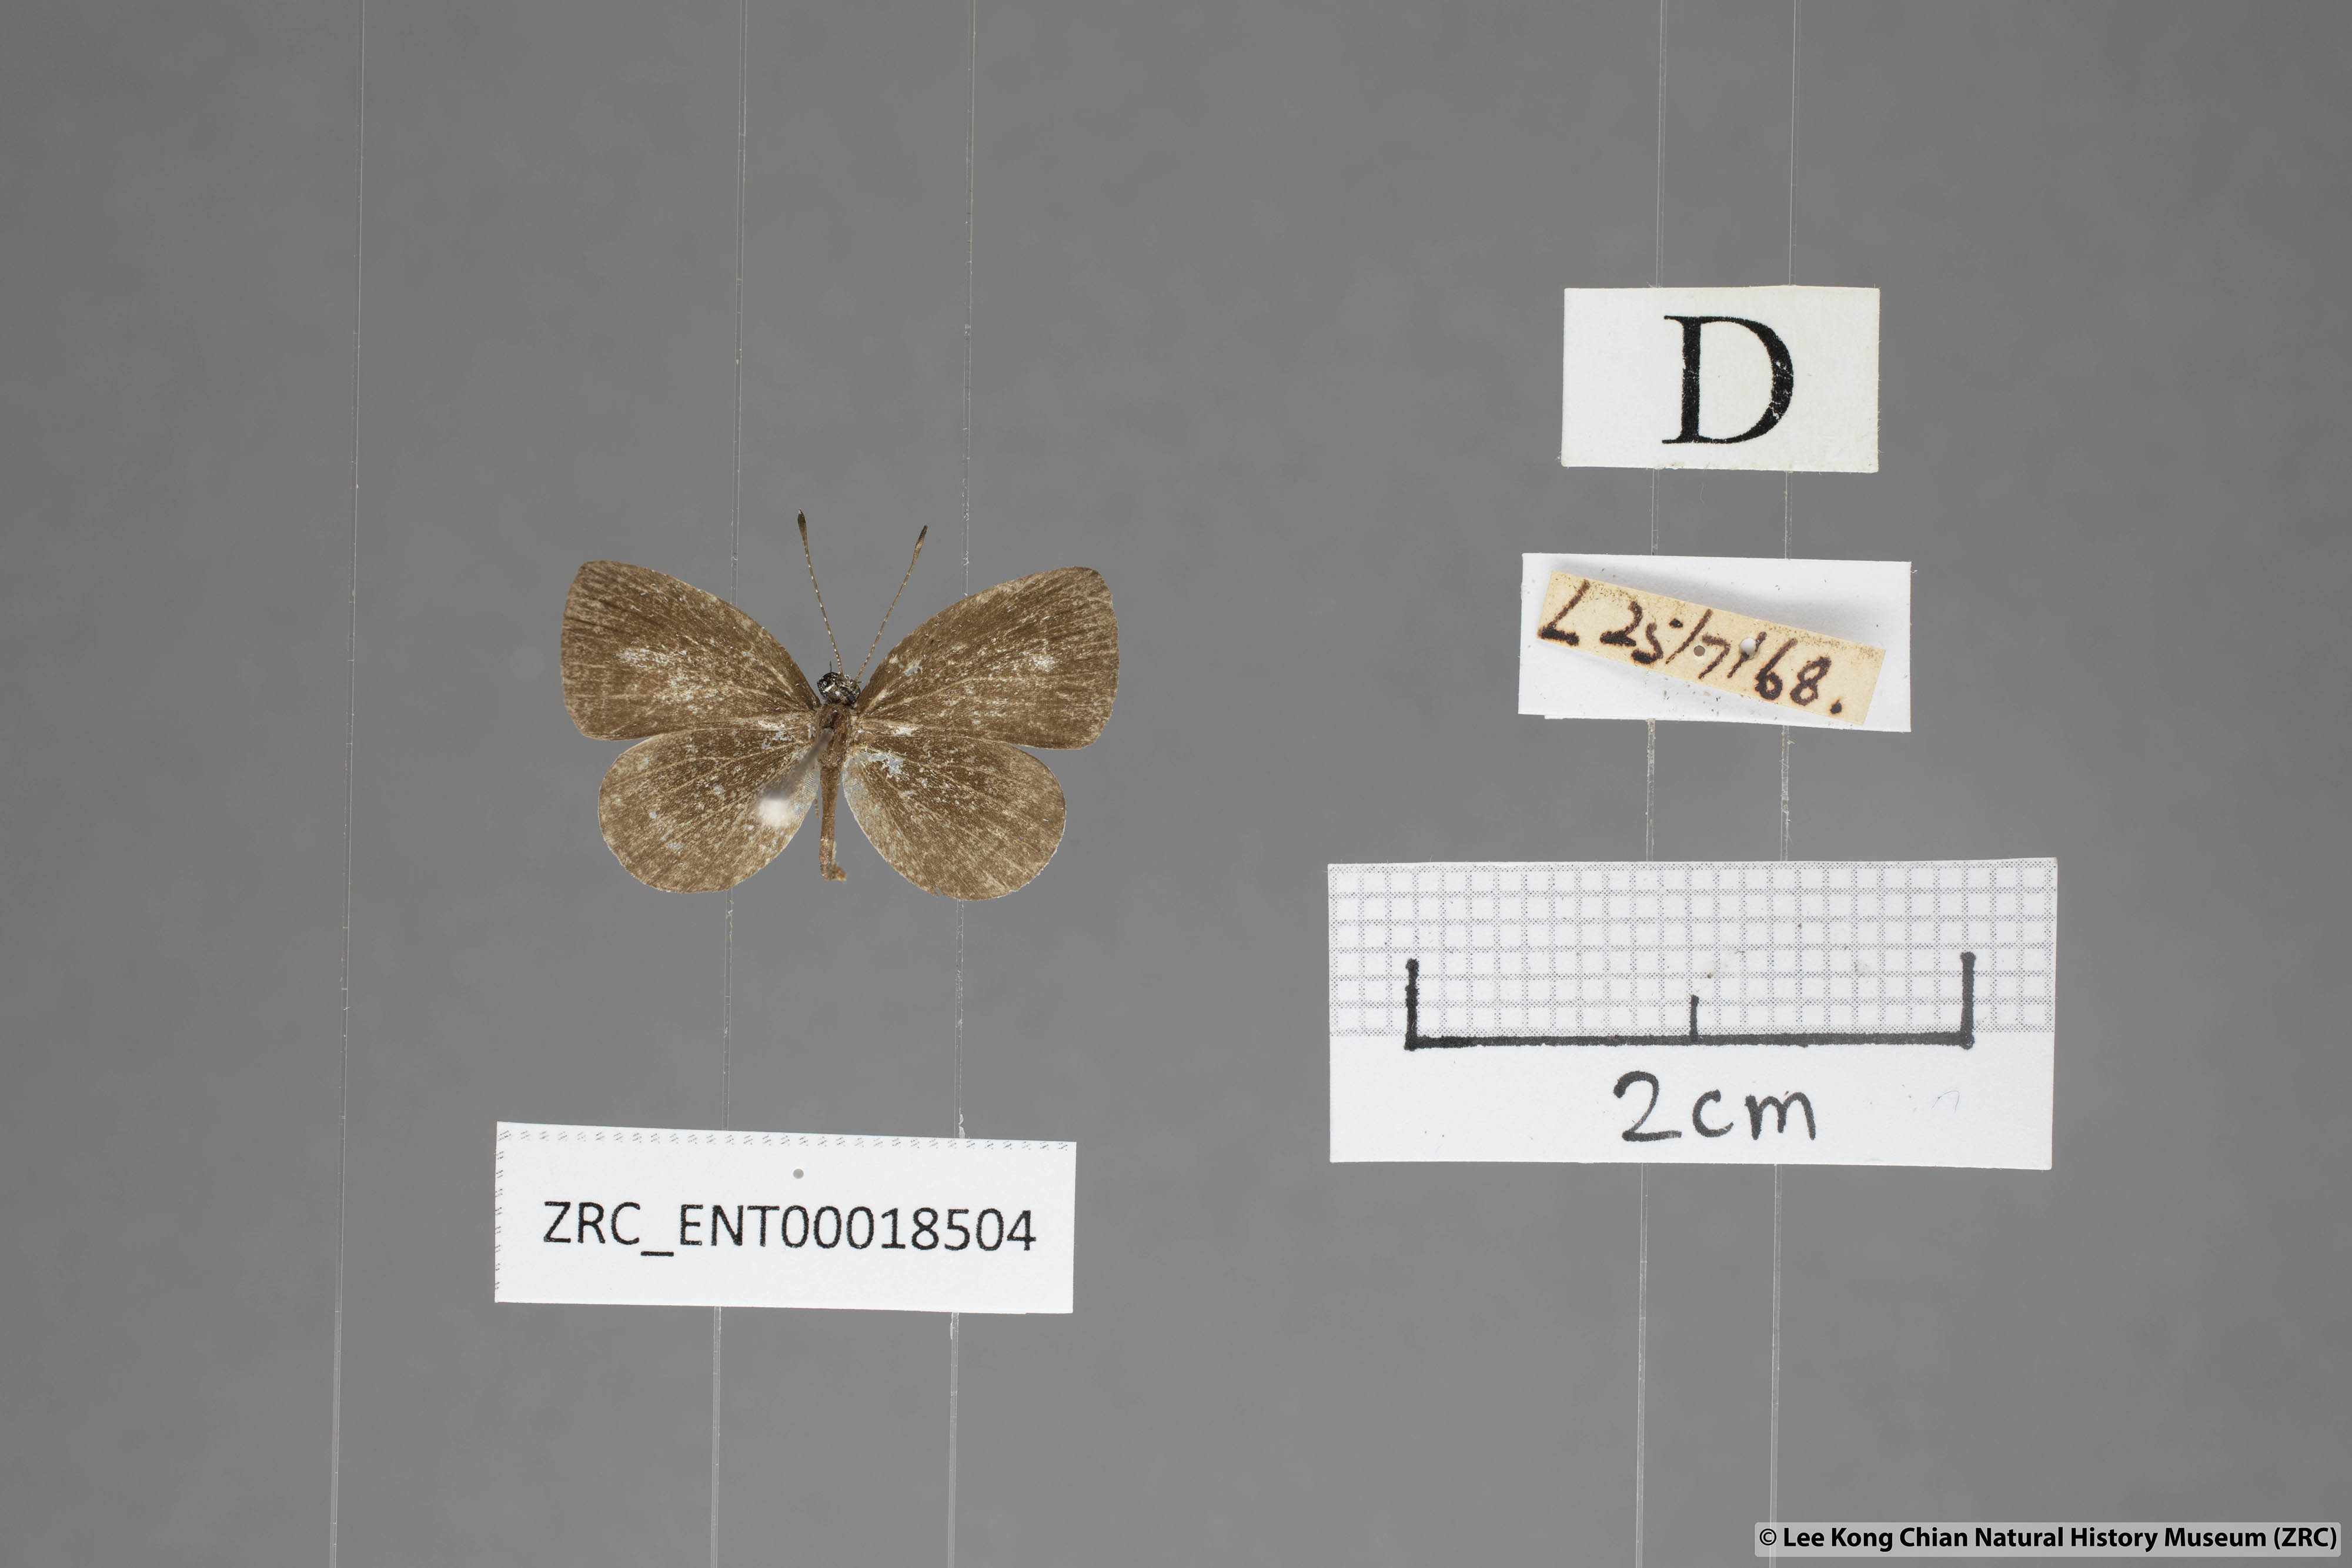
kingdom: Animalia
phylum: Arthropoda
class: Insecta
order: Lepidoptera
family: Lycaenidae
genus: Neopithecops
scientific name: Neopithecops zalmora
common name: Quaker
